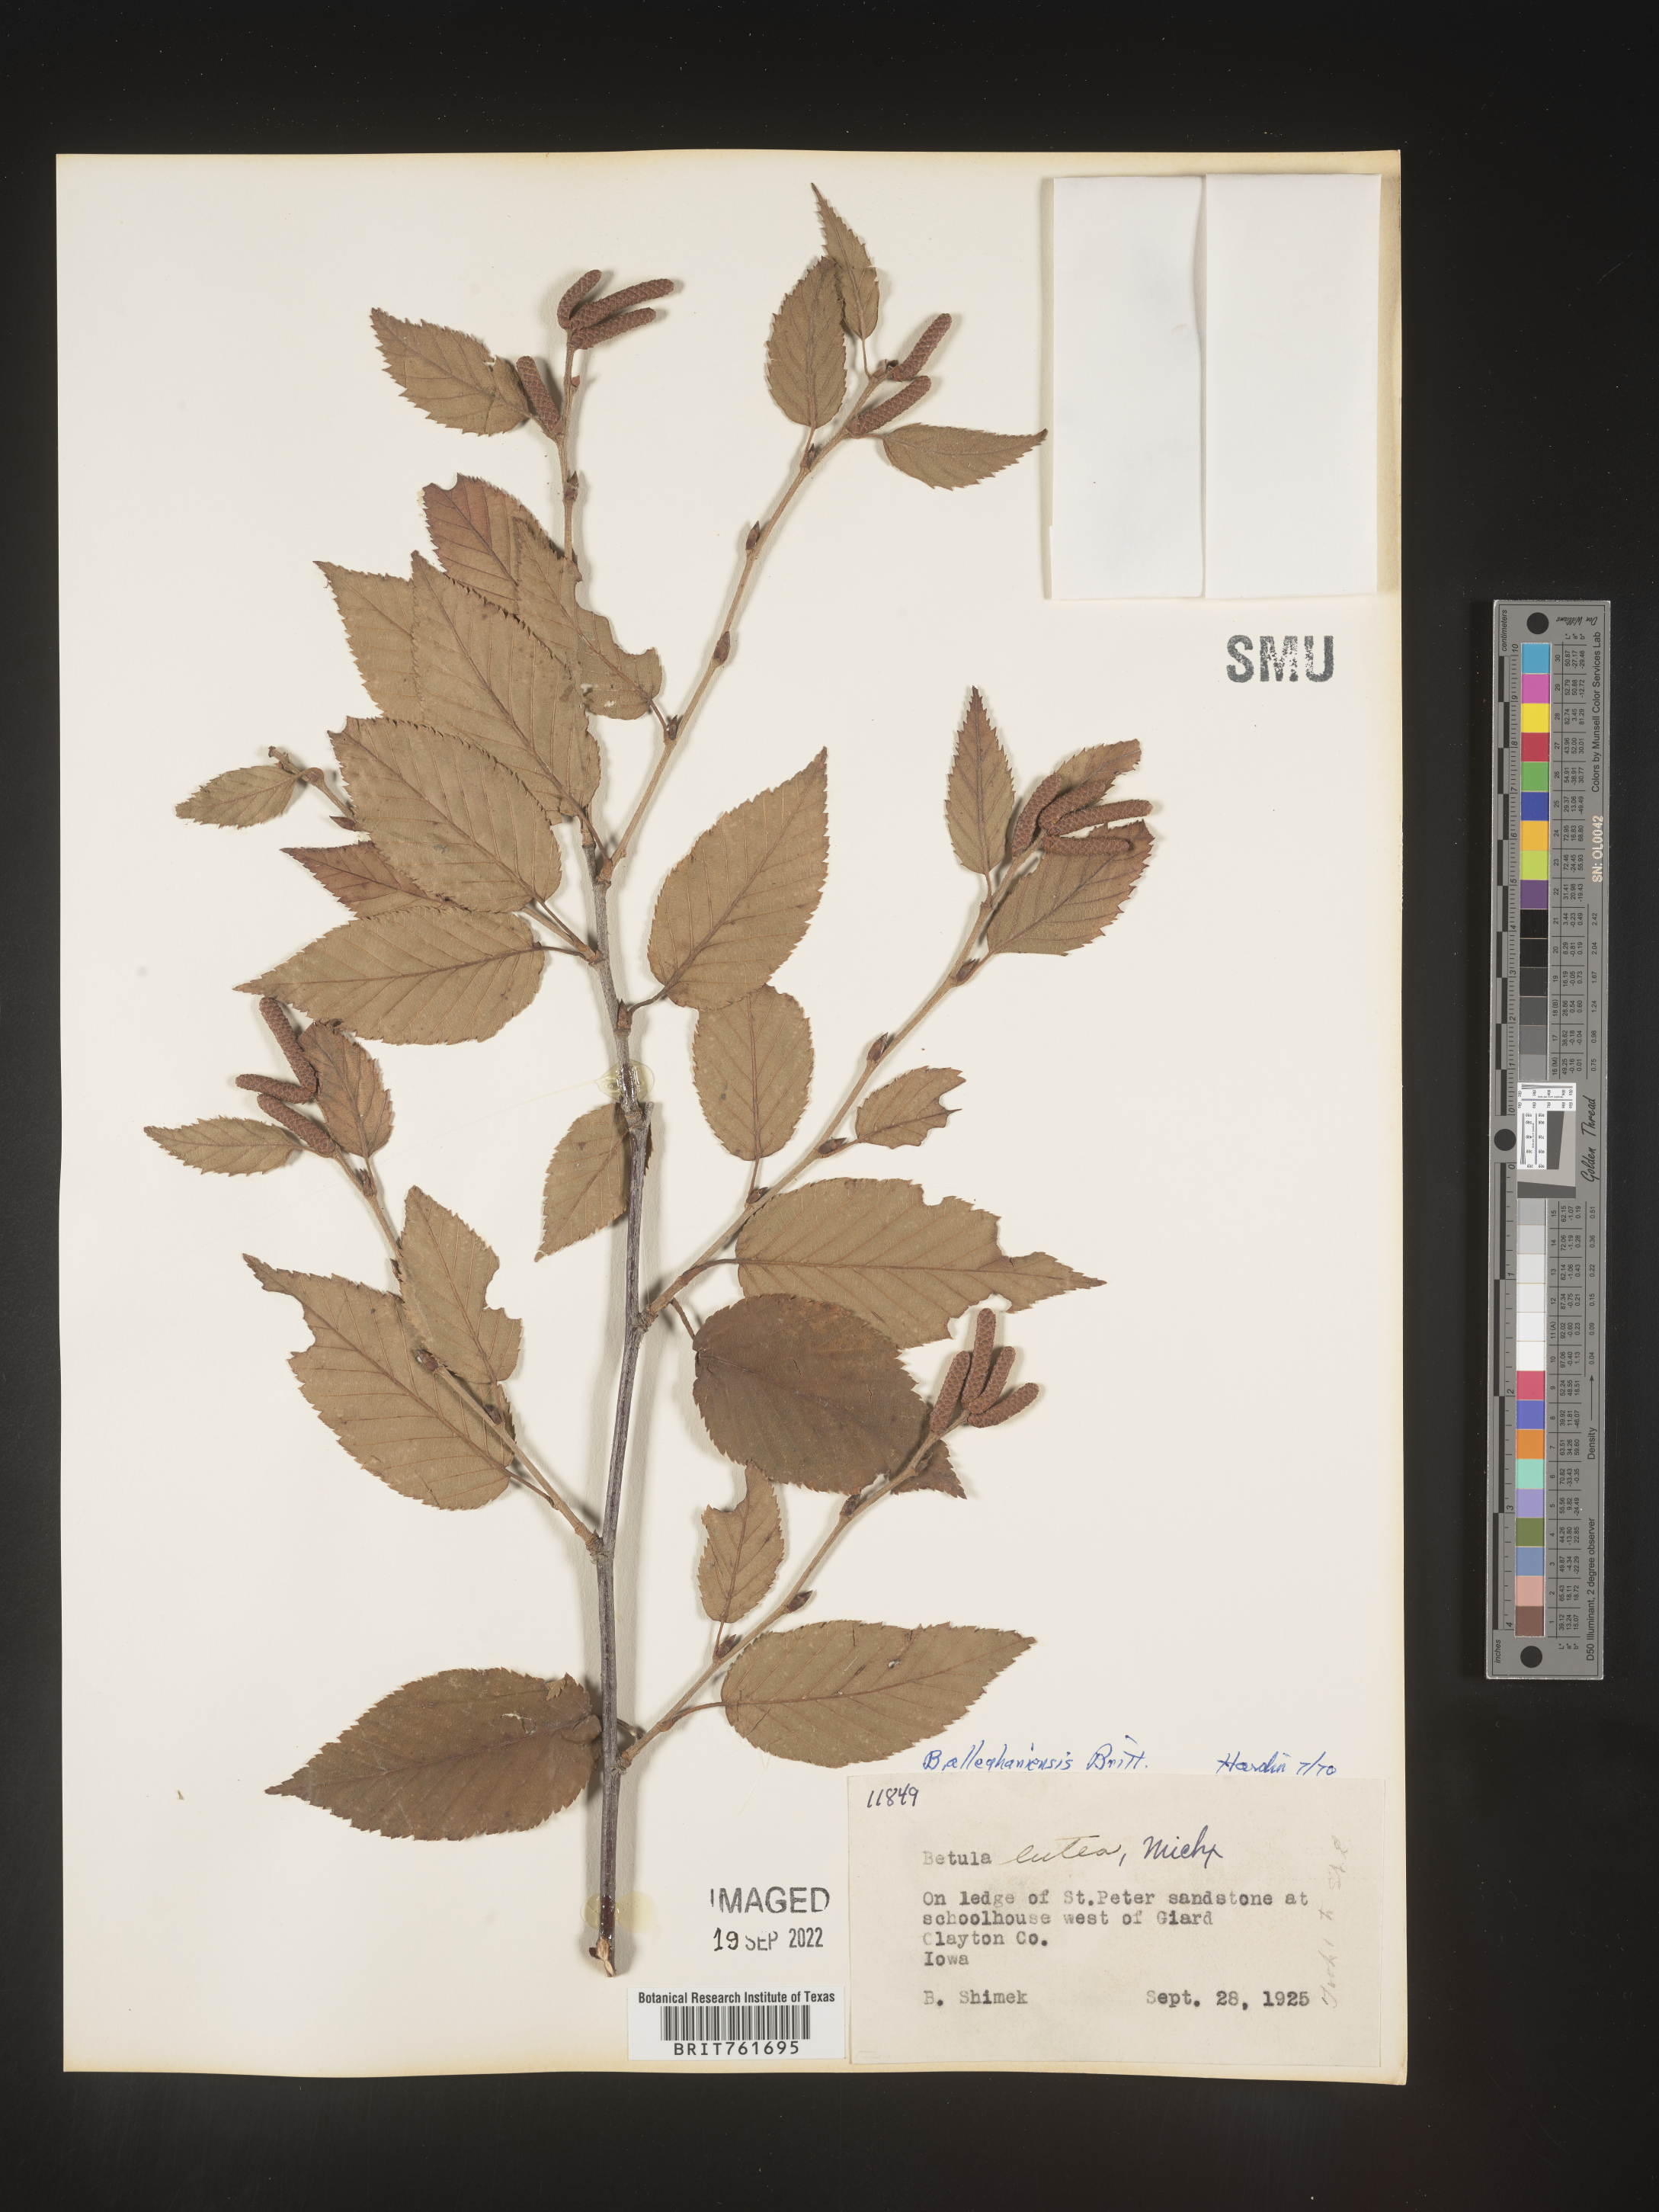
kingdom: Plantae
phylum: Tracheophyta
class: Magnoliopsida
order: Fagales
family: Betulaceae
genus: Betula
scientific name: Betula alleghaniensis
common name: Yellow birch
